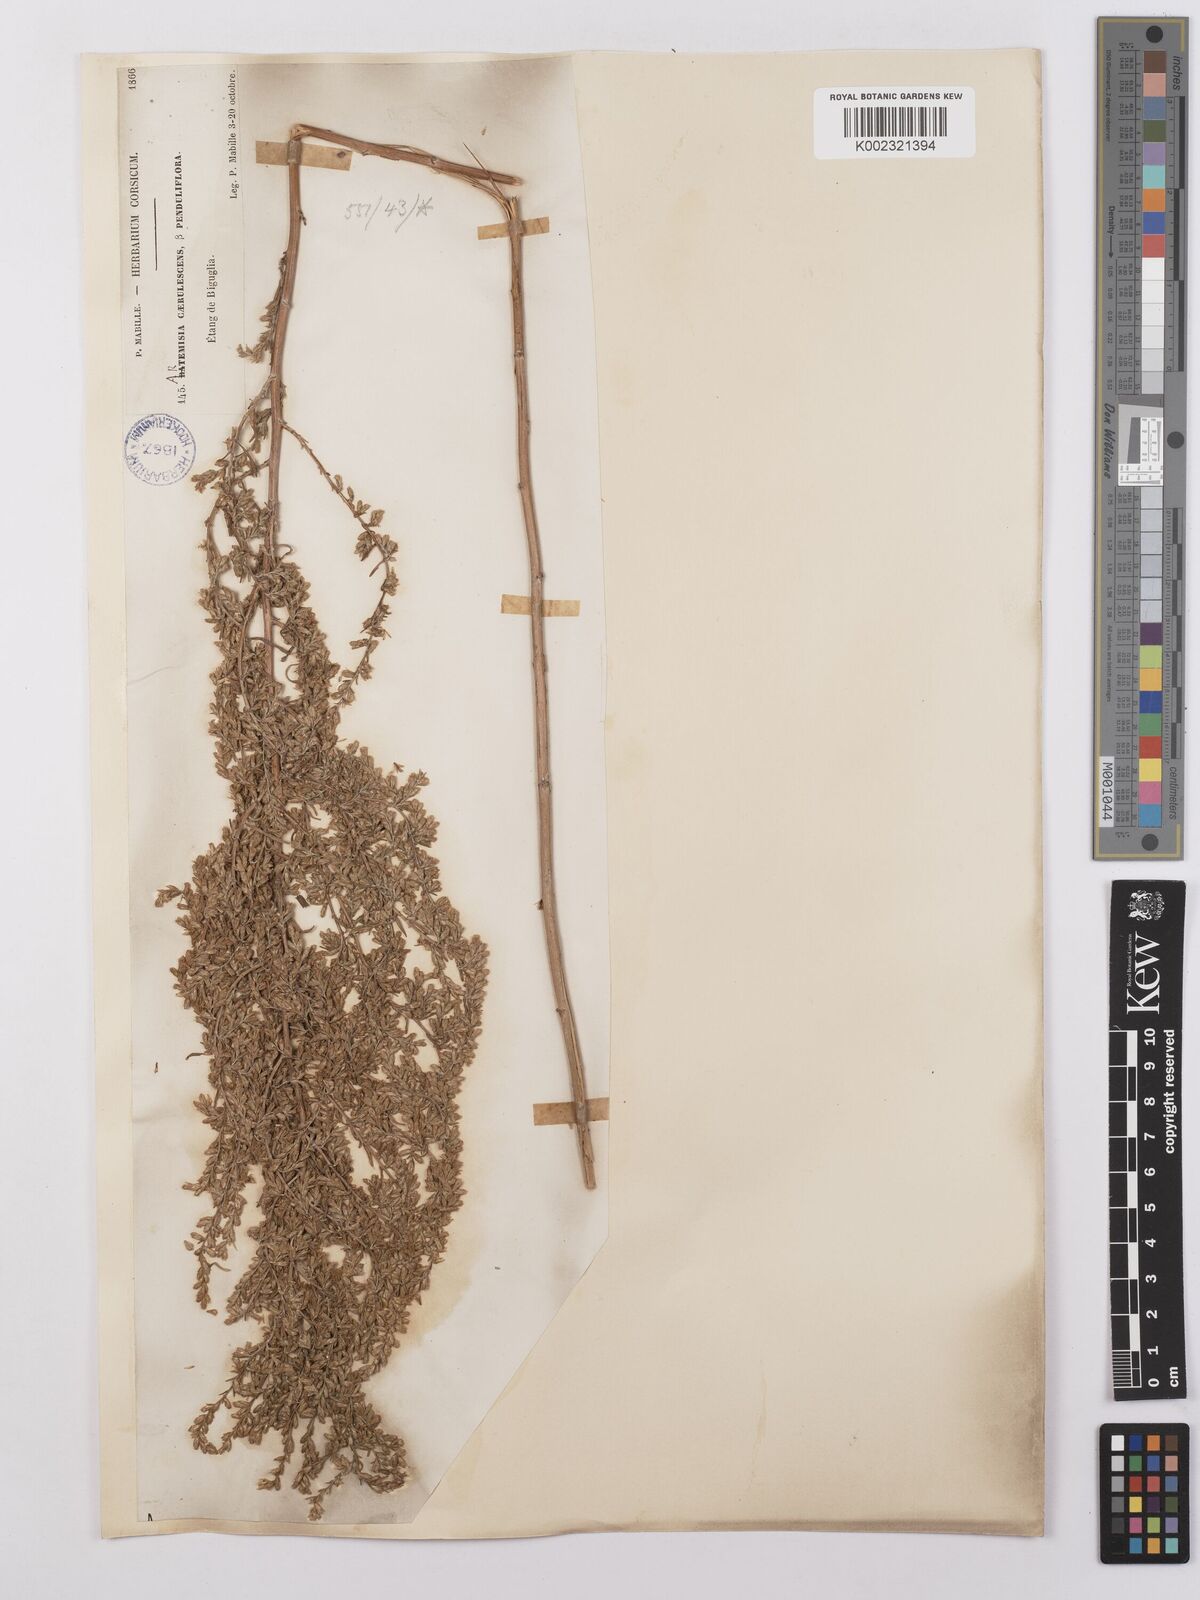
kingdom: Plantae
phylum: Tracheophyta
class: Magnoliopsida
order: Asterales
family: Asteraceae
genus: Artemisia
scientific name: Artemisia caerulescens
